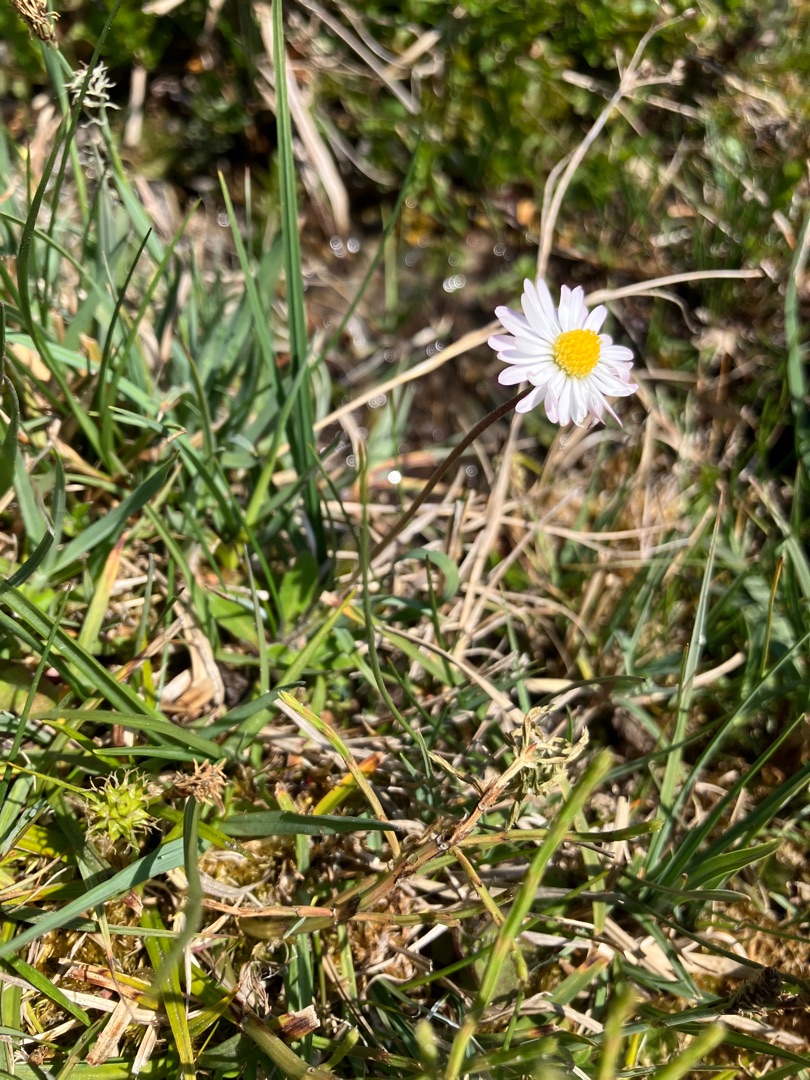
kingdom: Plantae
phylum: Tracheophyta
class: Magnoliopsida
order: Asterales
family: Asteraceae
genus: Bellis
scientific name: Bellis perennis
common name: Tusindfryd
